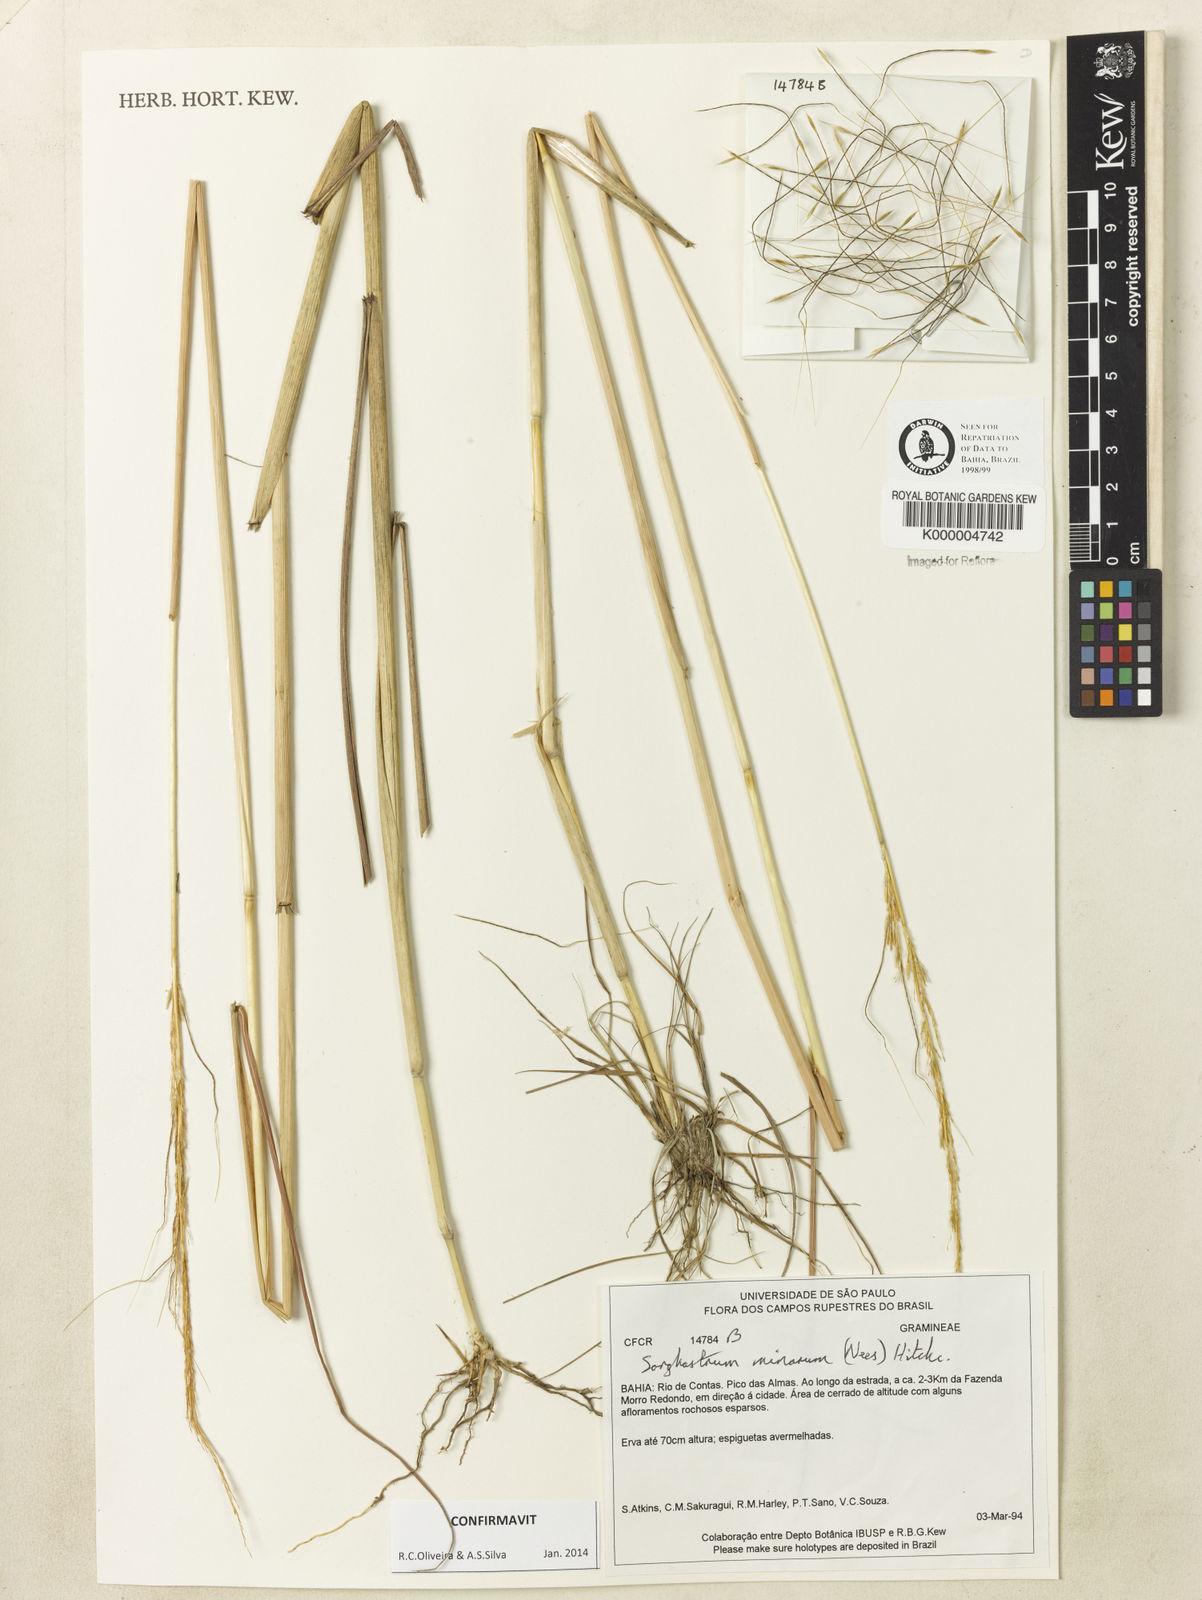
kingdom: Plantae
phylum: Tracheophyta
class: Liliopsida
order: Poales
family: Poaceae
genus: Sorghastrum
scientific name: Sorghastrum minarum
